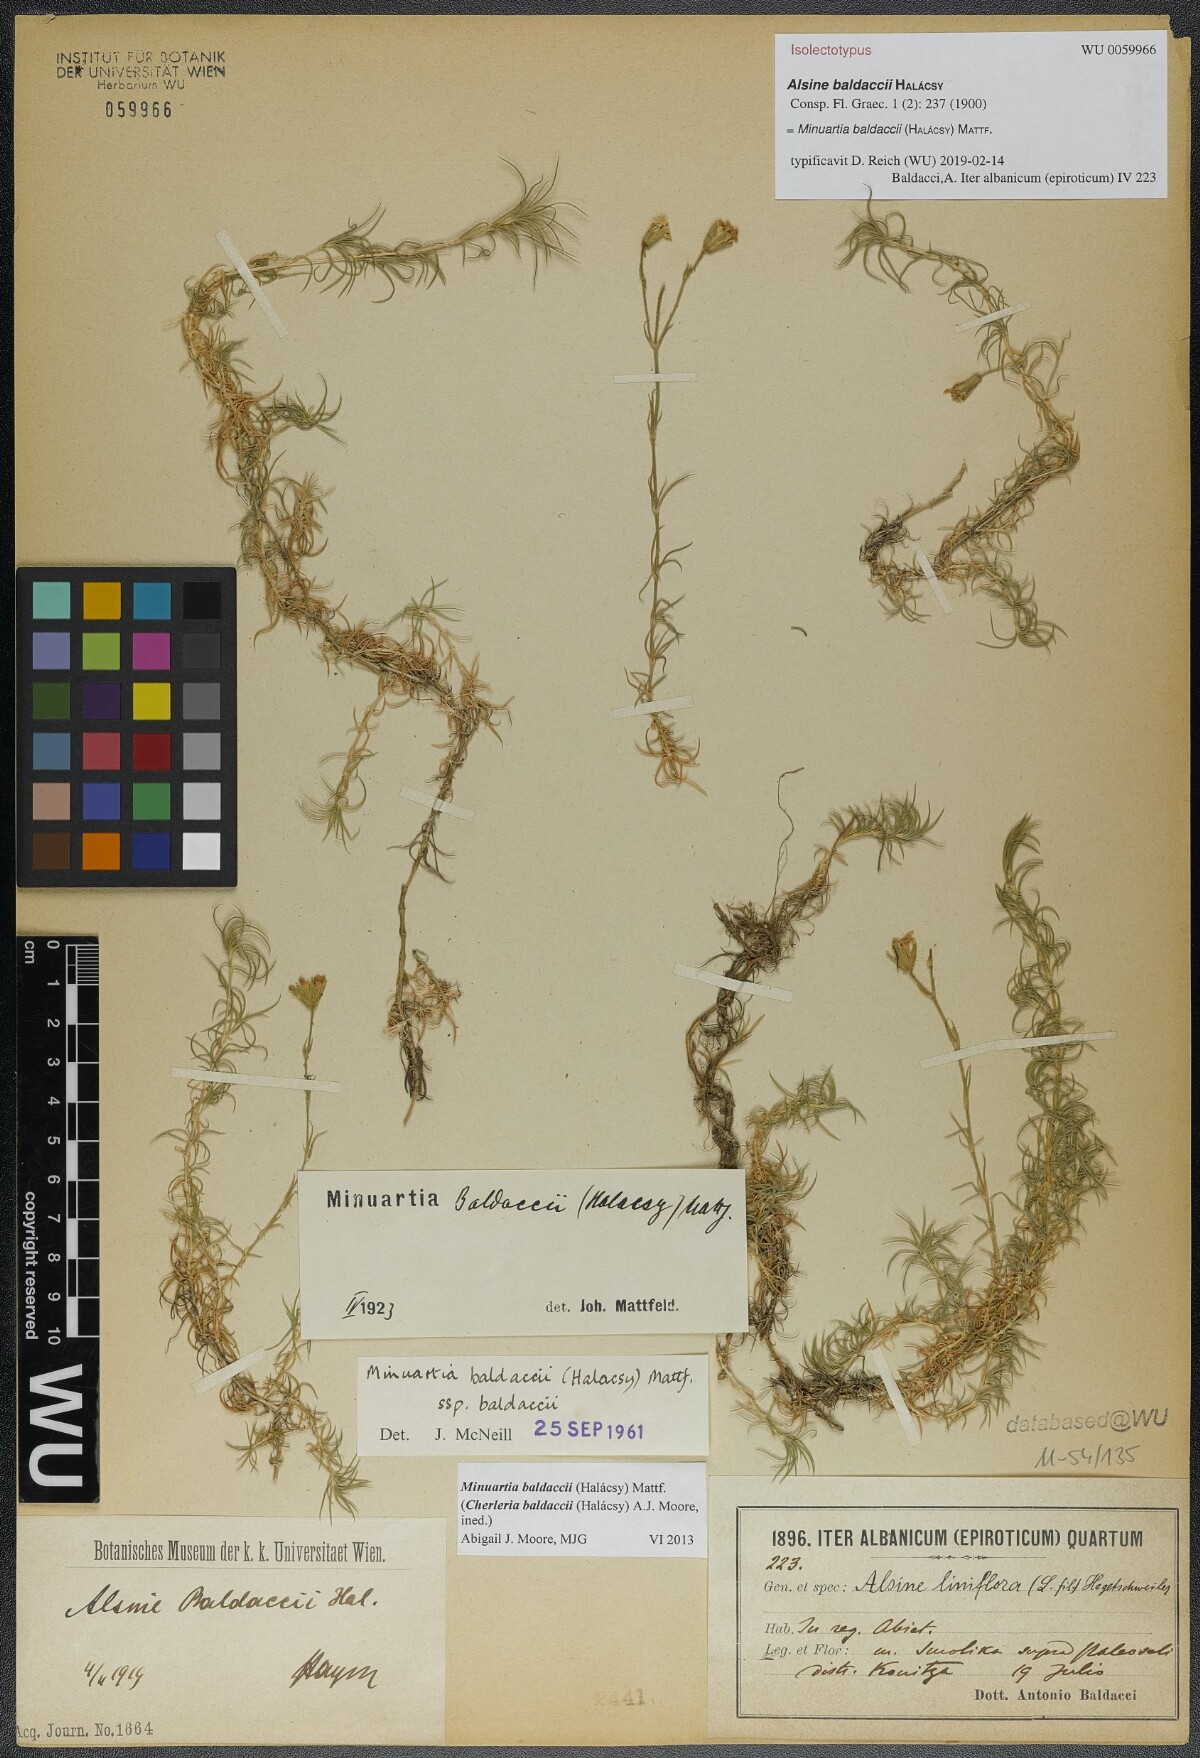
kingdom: Plantae
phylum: Tracheophyta
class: Magnoliopsida
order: Caryophyllales
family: Caryophyllaceae
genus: Cherleria
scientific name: Cherleria baldaccii
